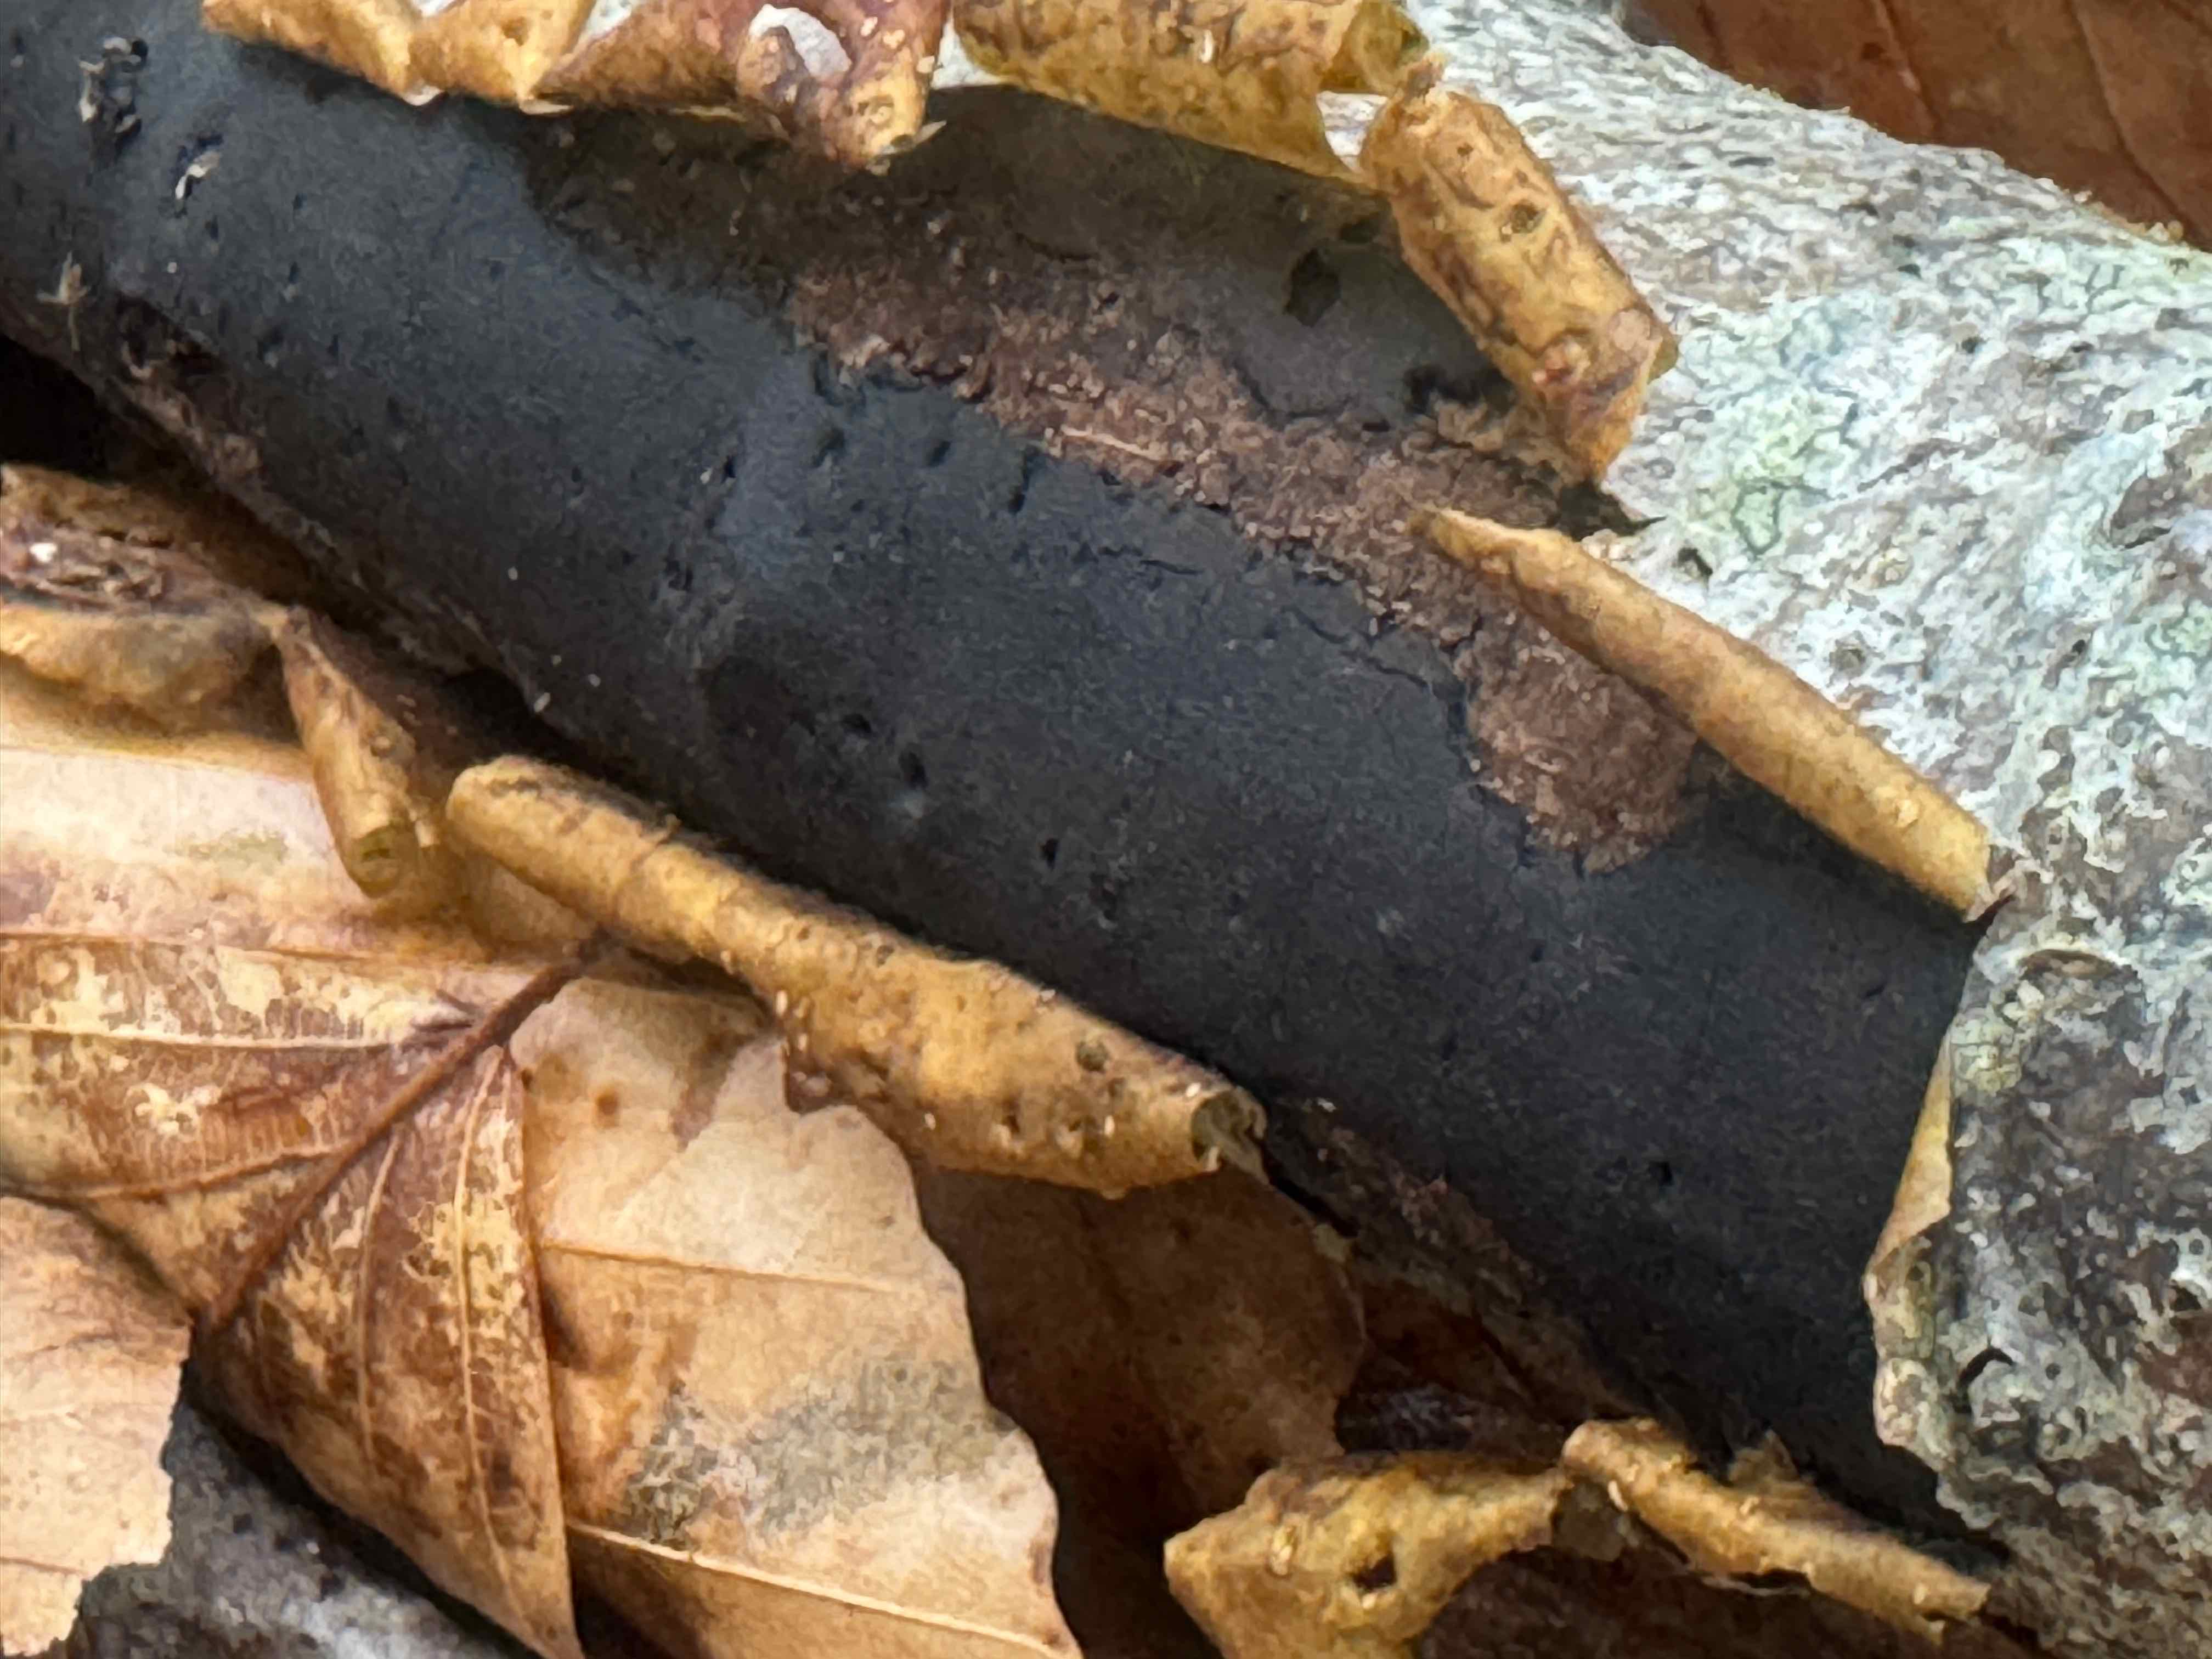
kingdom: Fungi
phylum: Ascomycota
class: Sordariomycetes
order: Xylariales
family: Diatrypaceae
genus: Diatrype
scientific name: Diatrype decorticata
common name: barksprænger-kulskorpe
